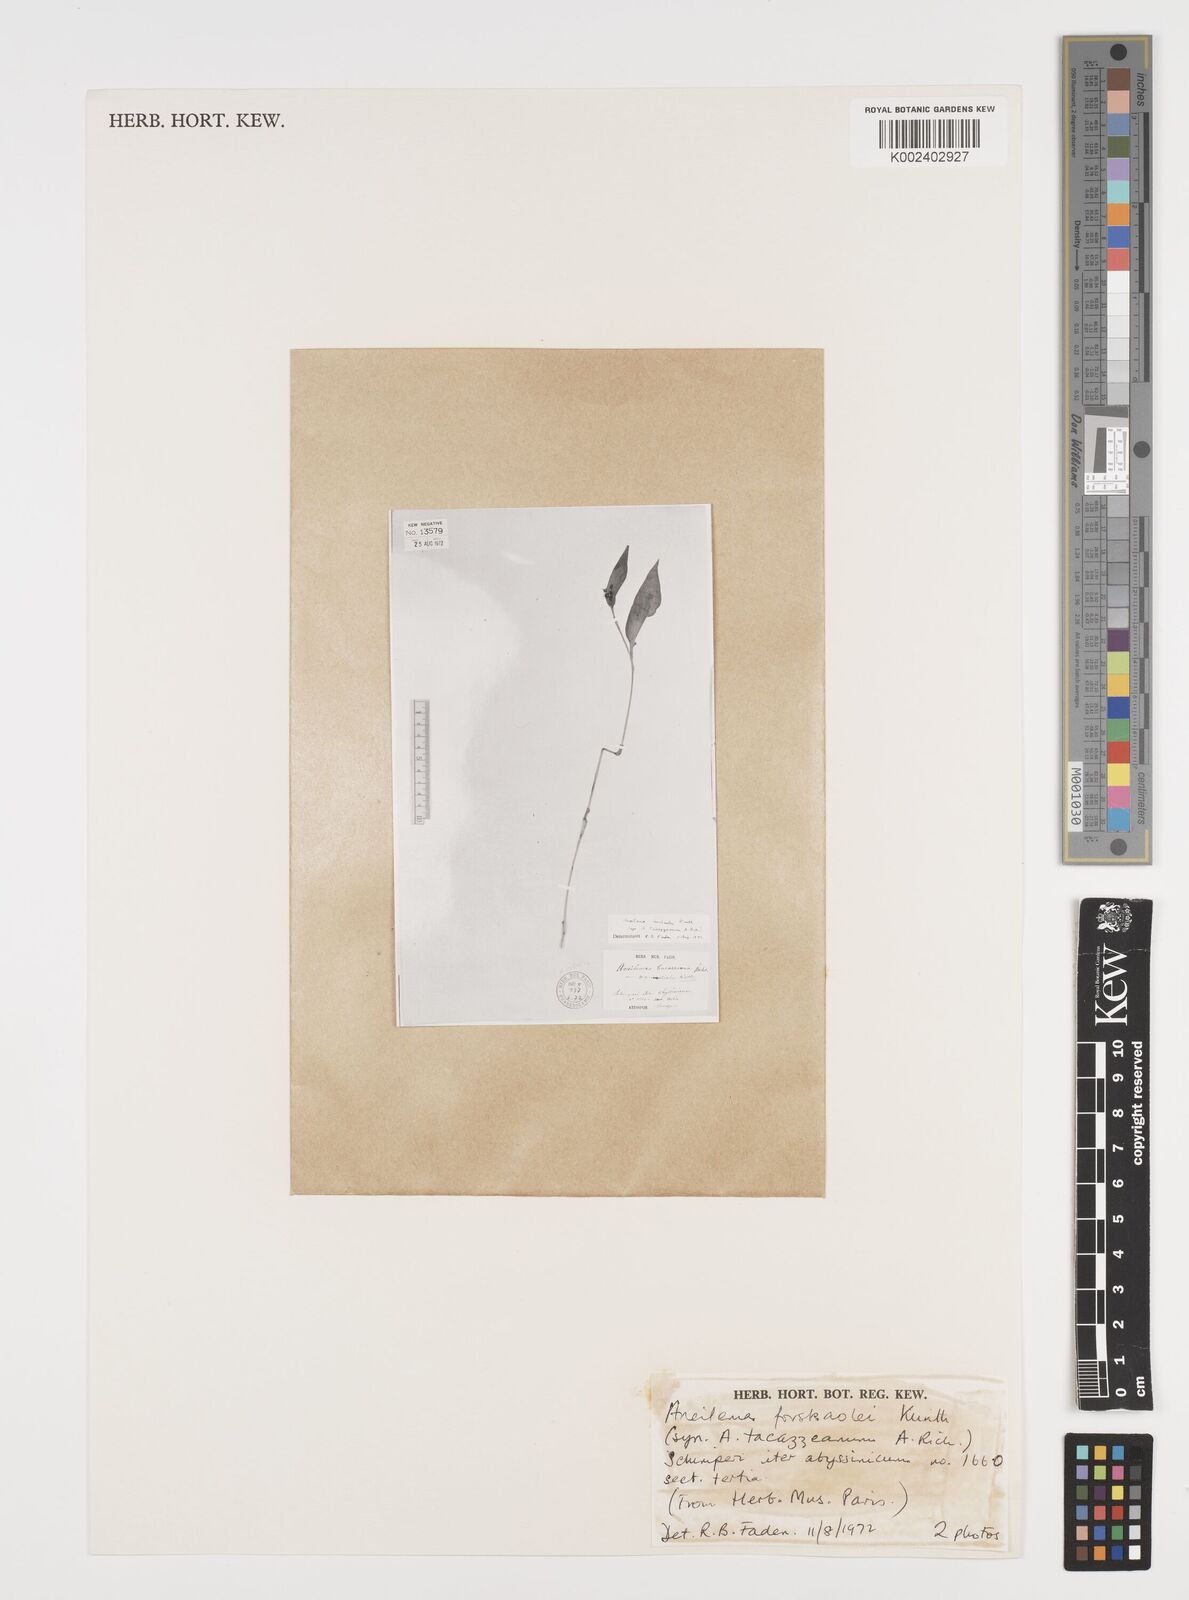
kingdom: Plantae
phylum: Tracheophyta
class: Liliopsida
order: Commelinales
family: Commelinaceae
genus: Aneilema
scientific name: Aneilema forskalii
